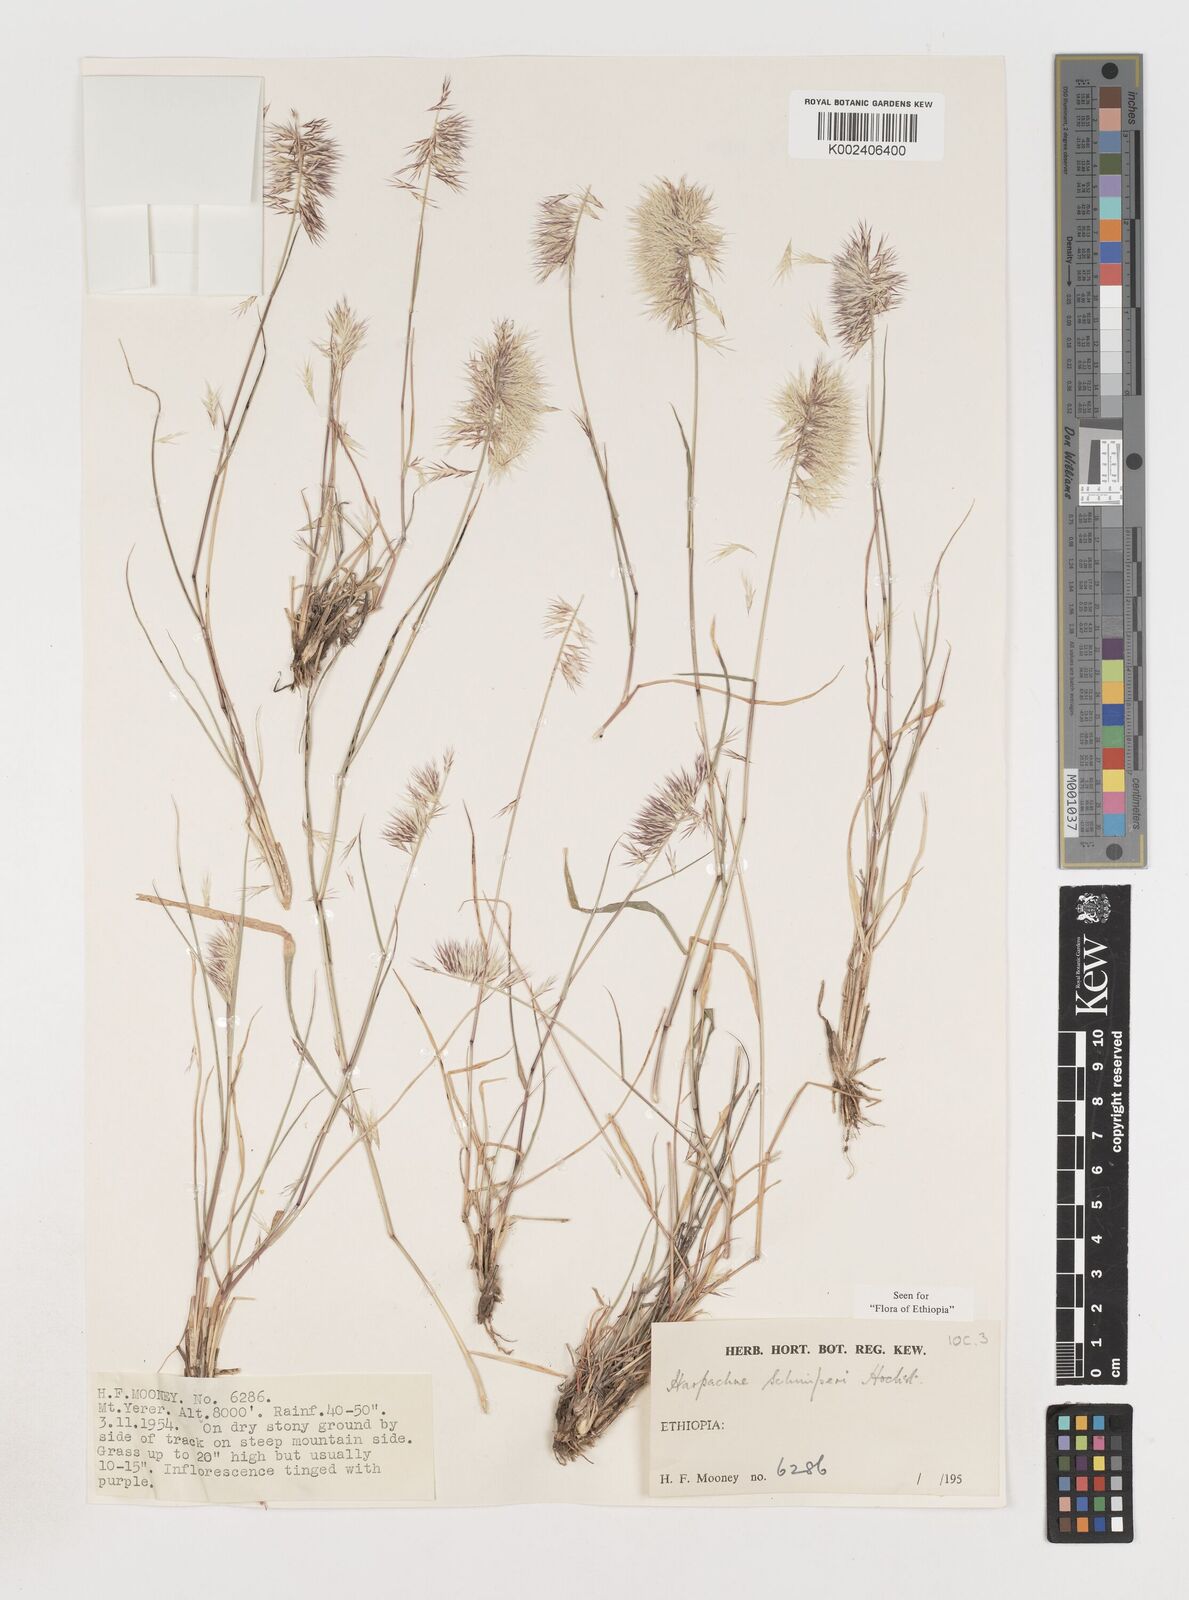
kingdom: Plantae
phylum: Tracheophyta
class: Liliopsida
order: Poales
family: Poaceae
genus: Harpachne
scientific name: Harpachne schimperi
